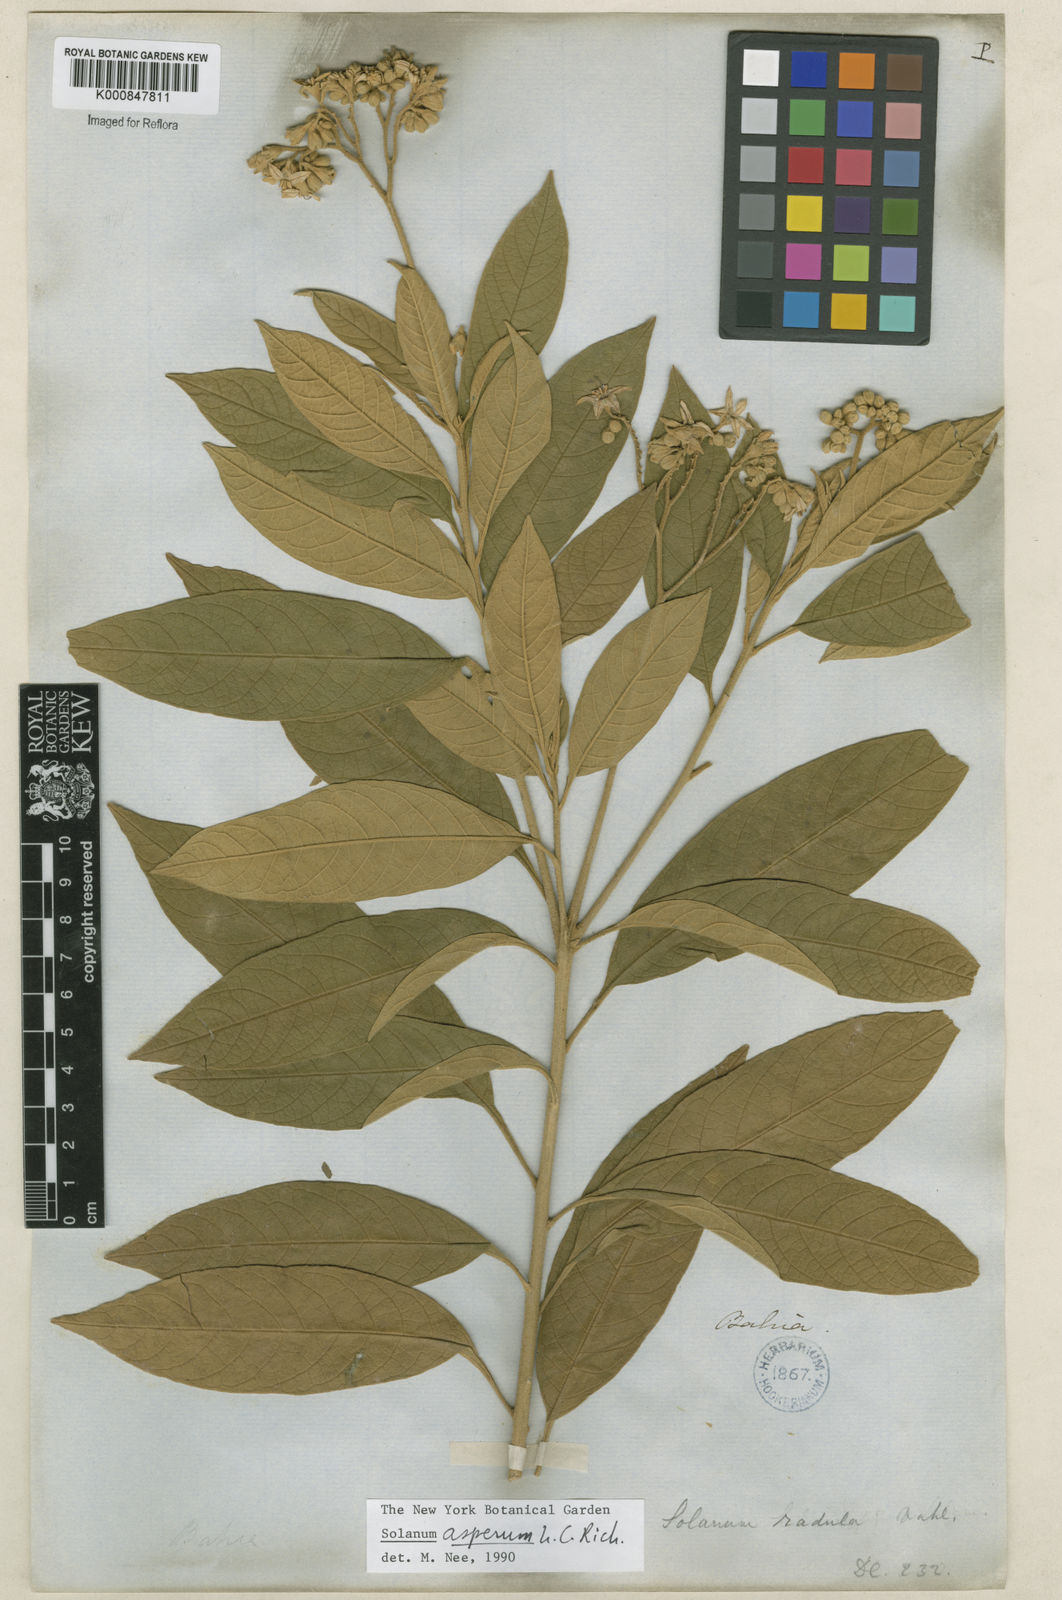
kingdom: Plantae
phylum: Tracheophyta
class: Magnoliopsida
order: Solanales
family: Solanaceae
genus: Solanum
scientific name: Solanum asperum
